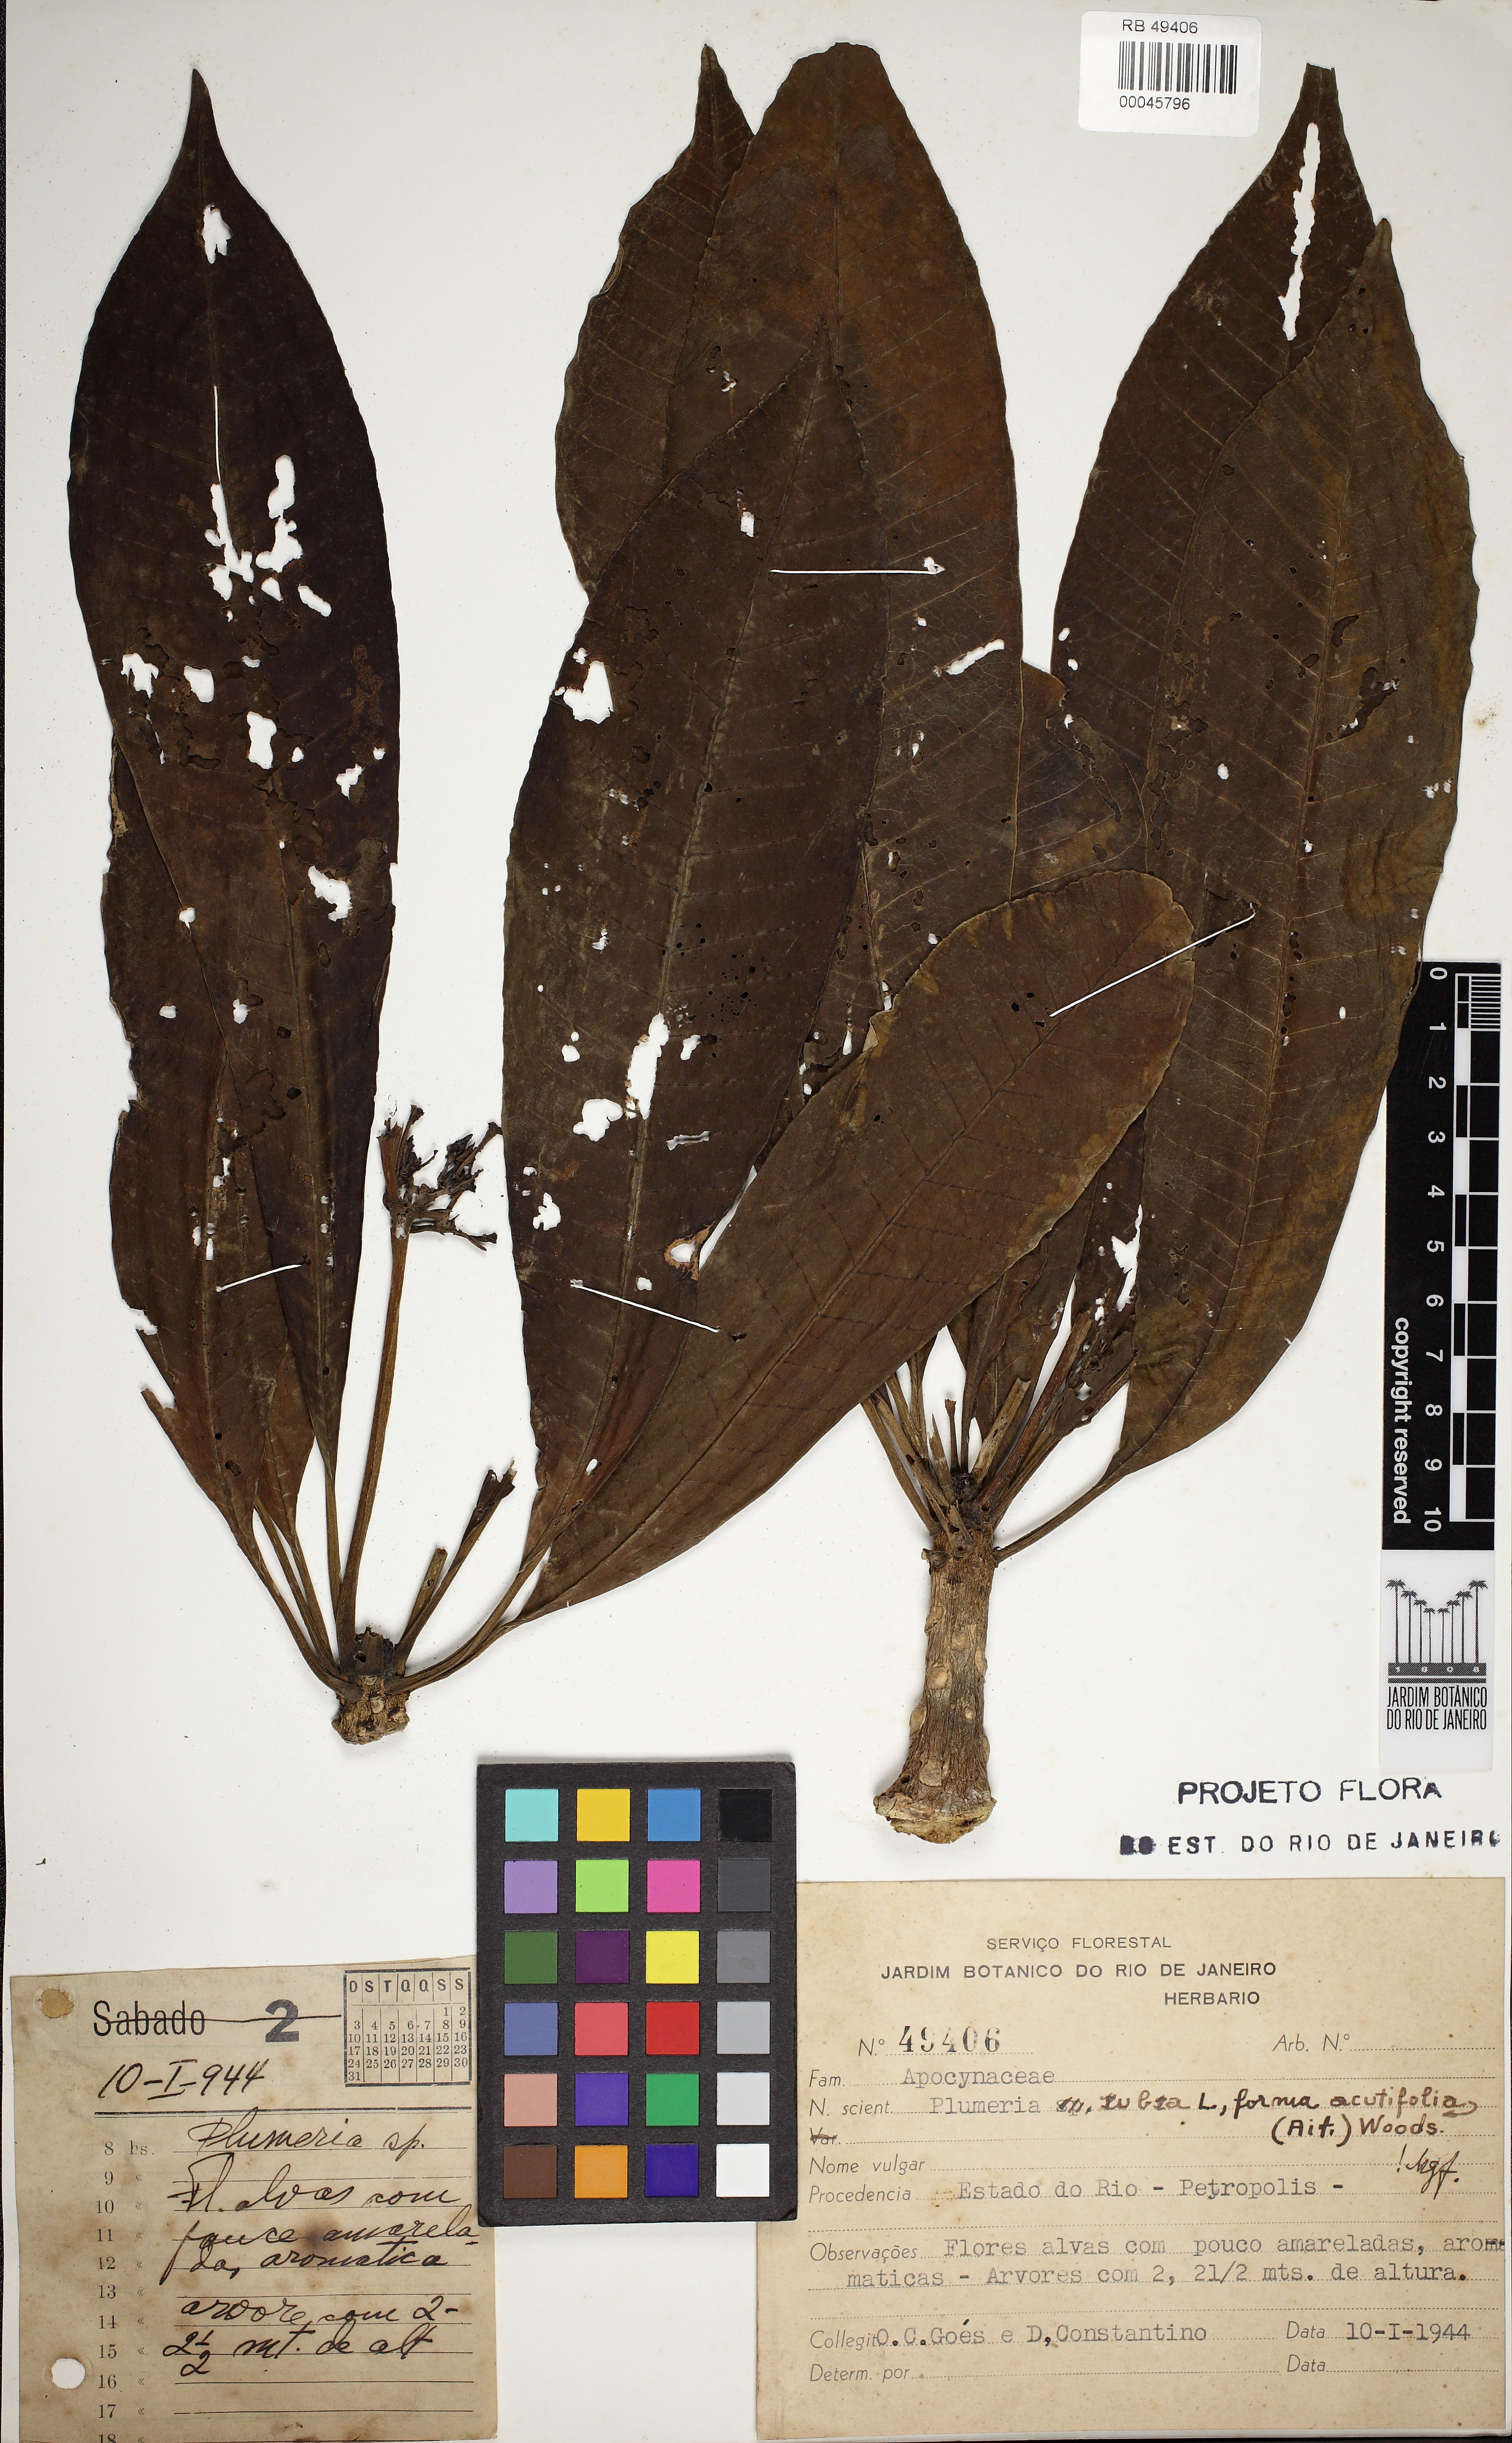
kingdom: Plantae
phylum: Tracheophyta
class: Magnoliopsida
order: Gentianales
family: Apocynaceae
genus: Plumeria
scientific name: Plumeria rubra
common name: Pagoda-tree
